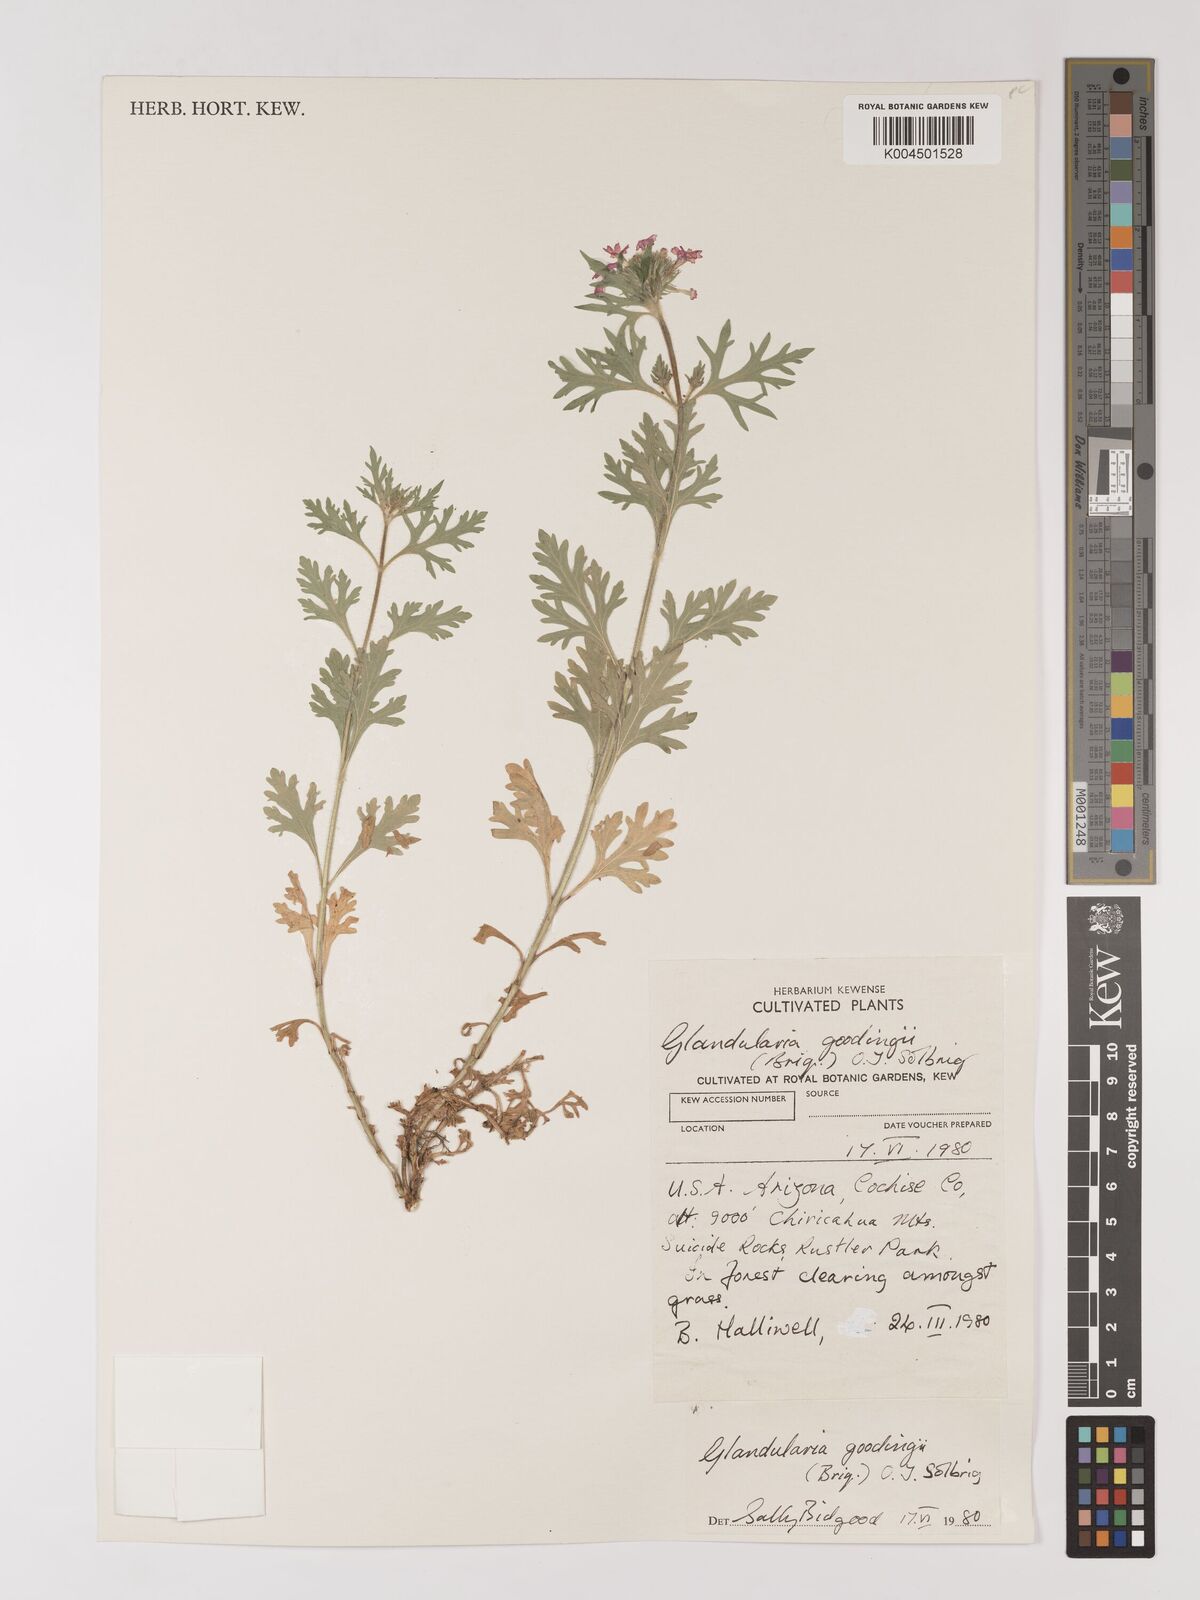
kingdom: Plantae
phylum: Tracheophyta
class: Magnoliopsida
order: Lamiales
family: Verbenaceae
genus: Verbena
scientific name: Verbena gooddingii
